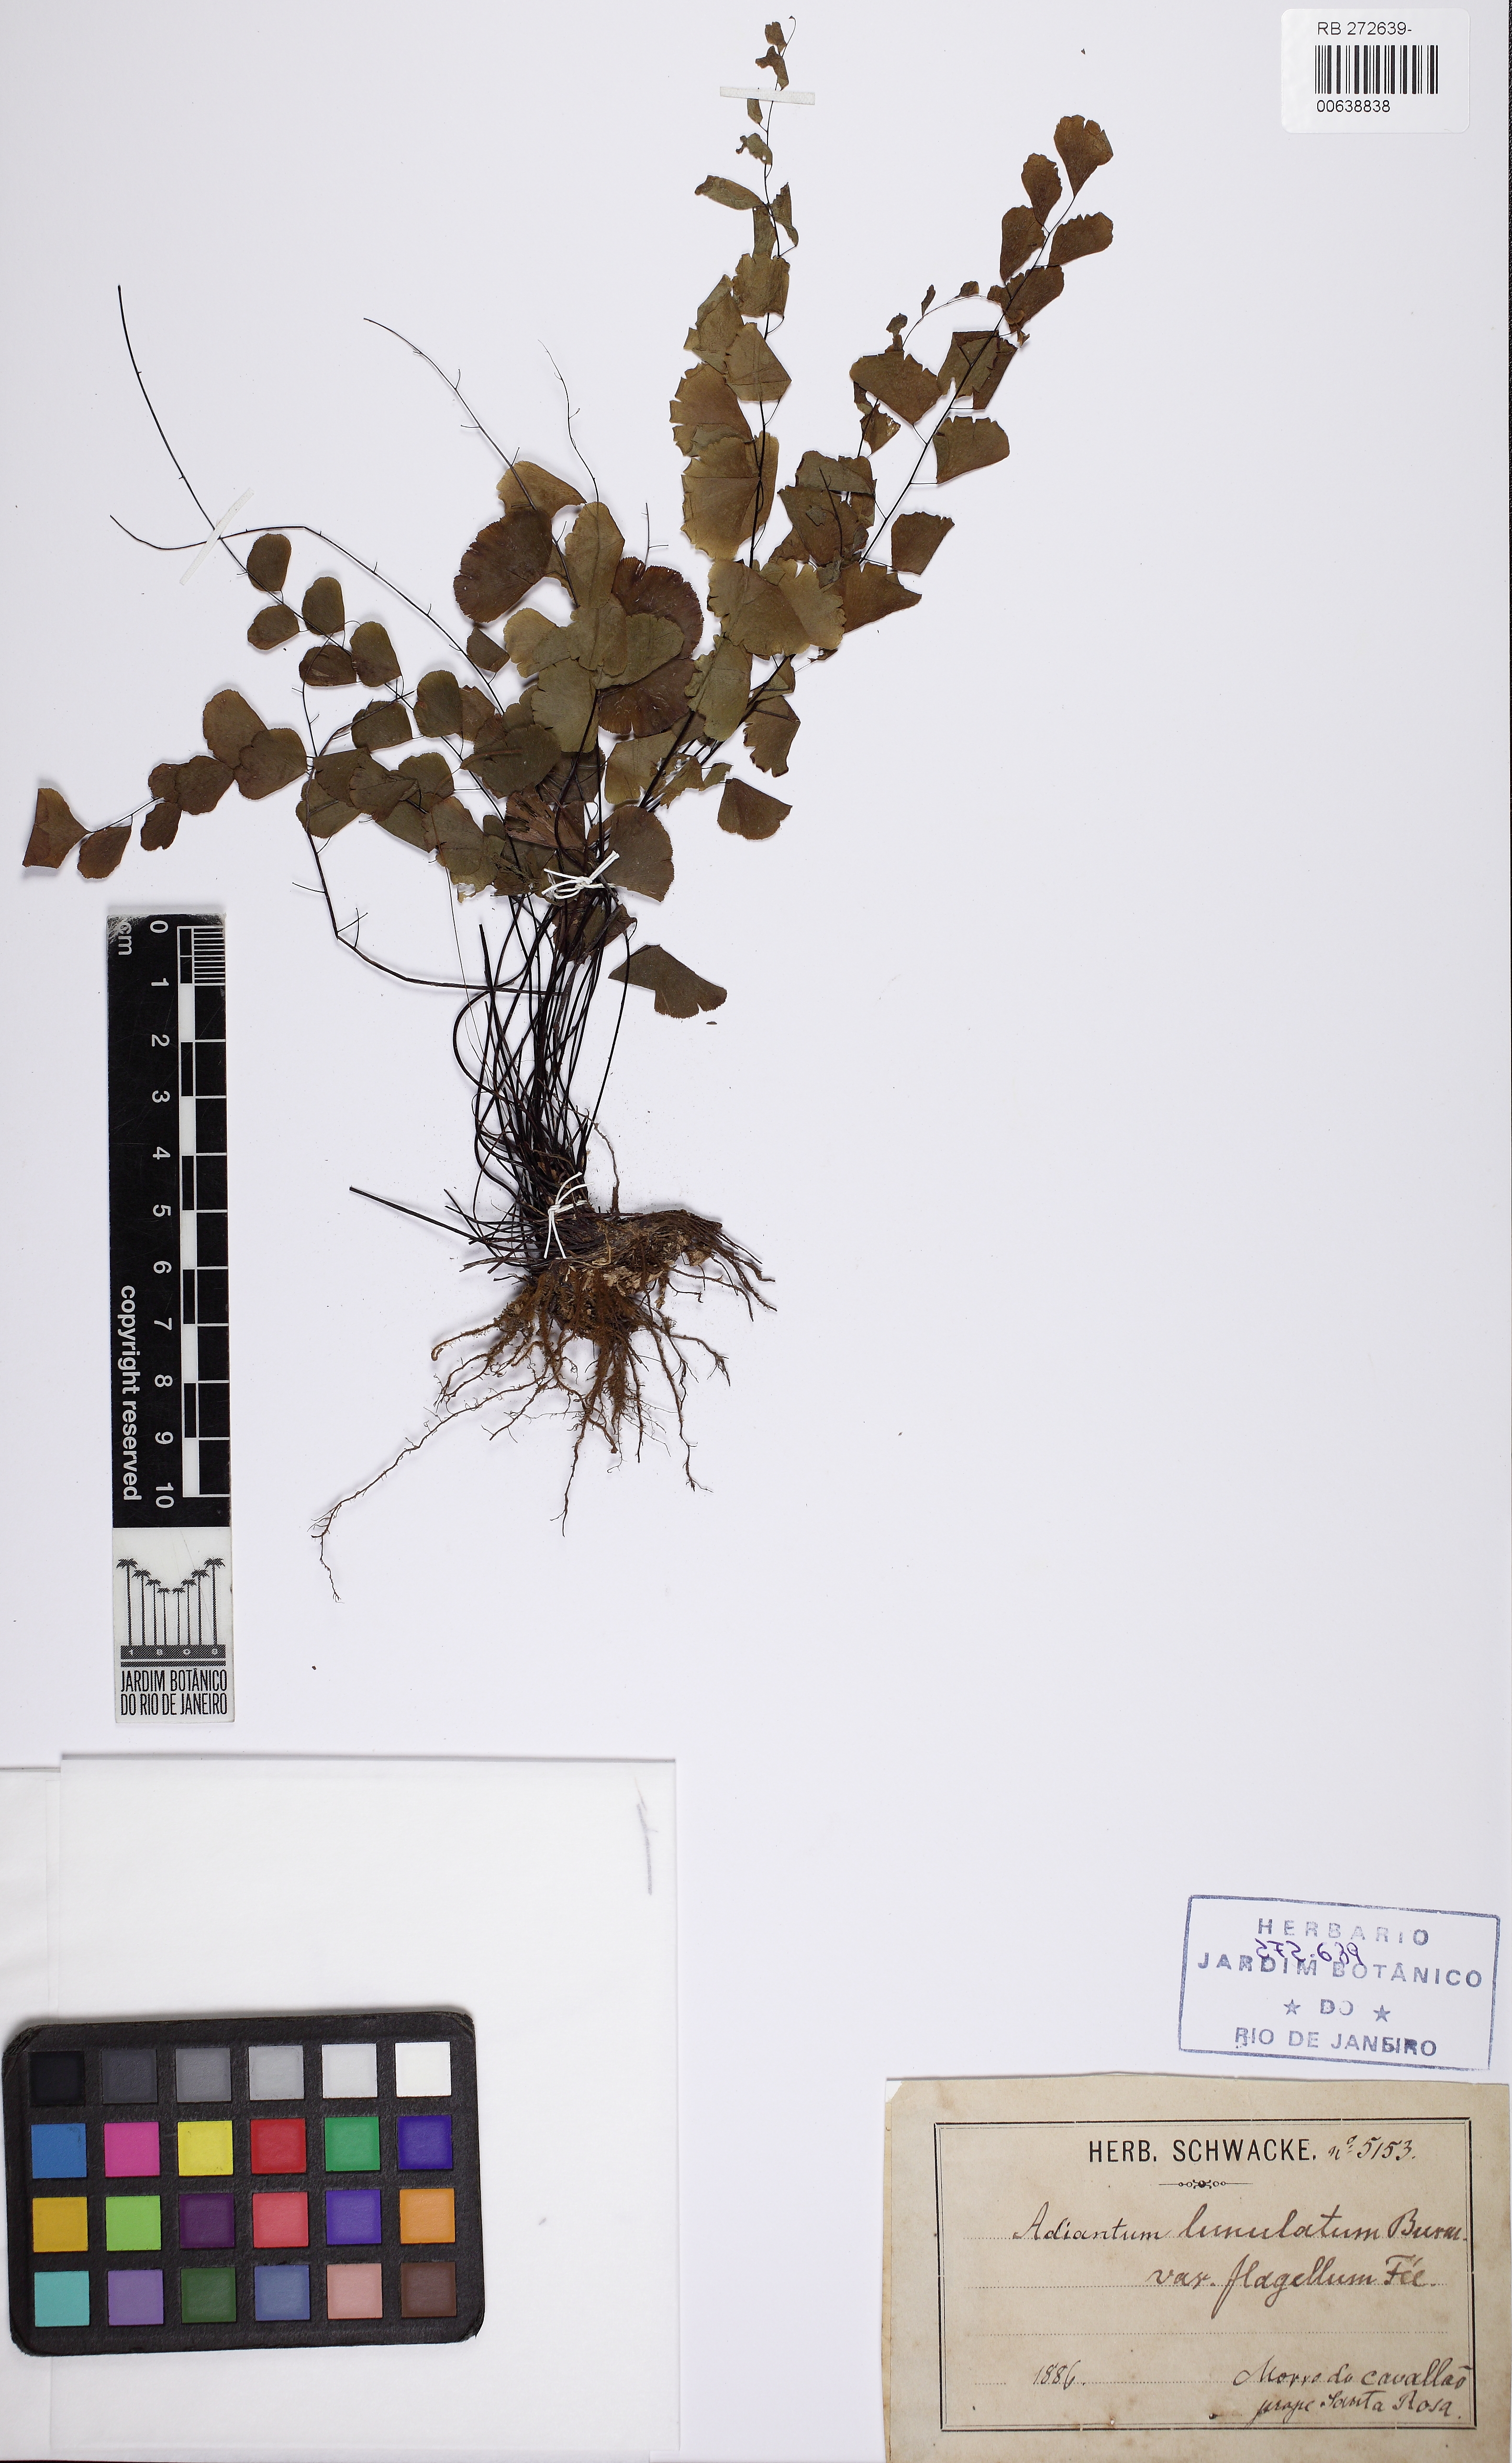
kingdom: Plantae
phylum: Tracheophyta
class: Polypodiopsida
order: Polypodiales
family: Pteridaceae
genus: Adiantum
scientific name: Adiantum deflectens
